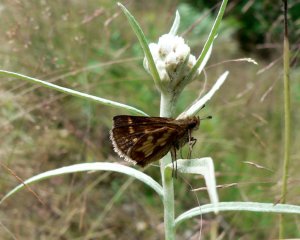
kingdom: Animalia
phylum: Arthropoda
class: Insecta
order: Lepidoptera
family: Hesperiidae
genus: Polites
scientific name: Polites coras
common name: Peck's Skipper
